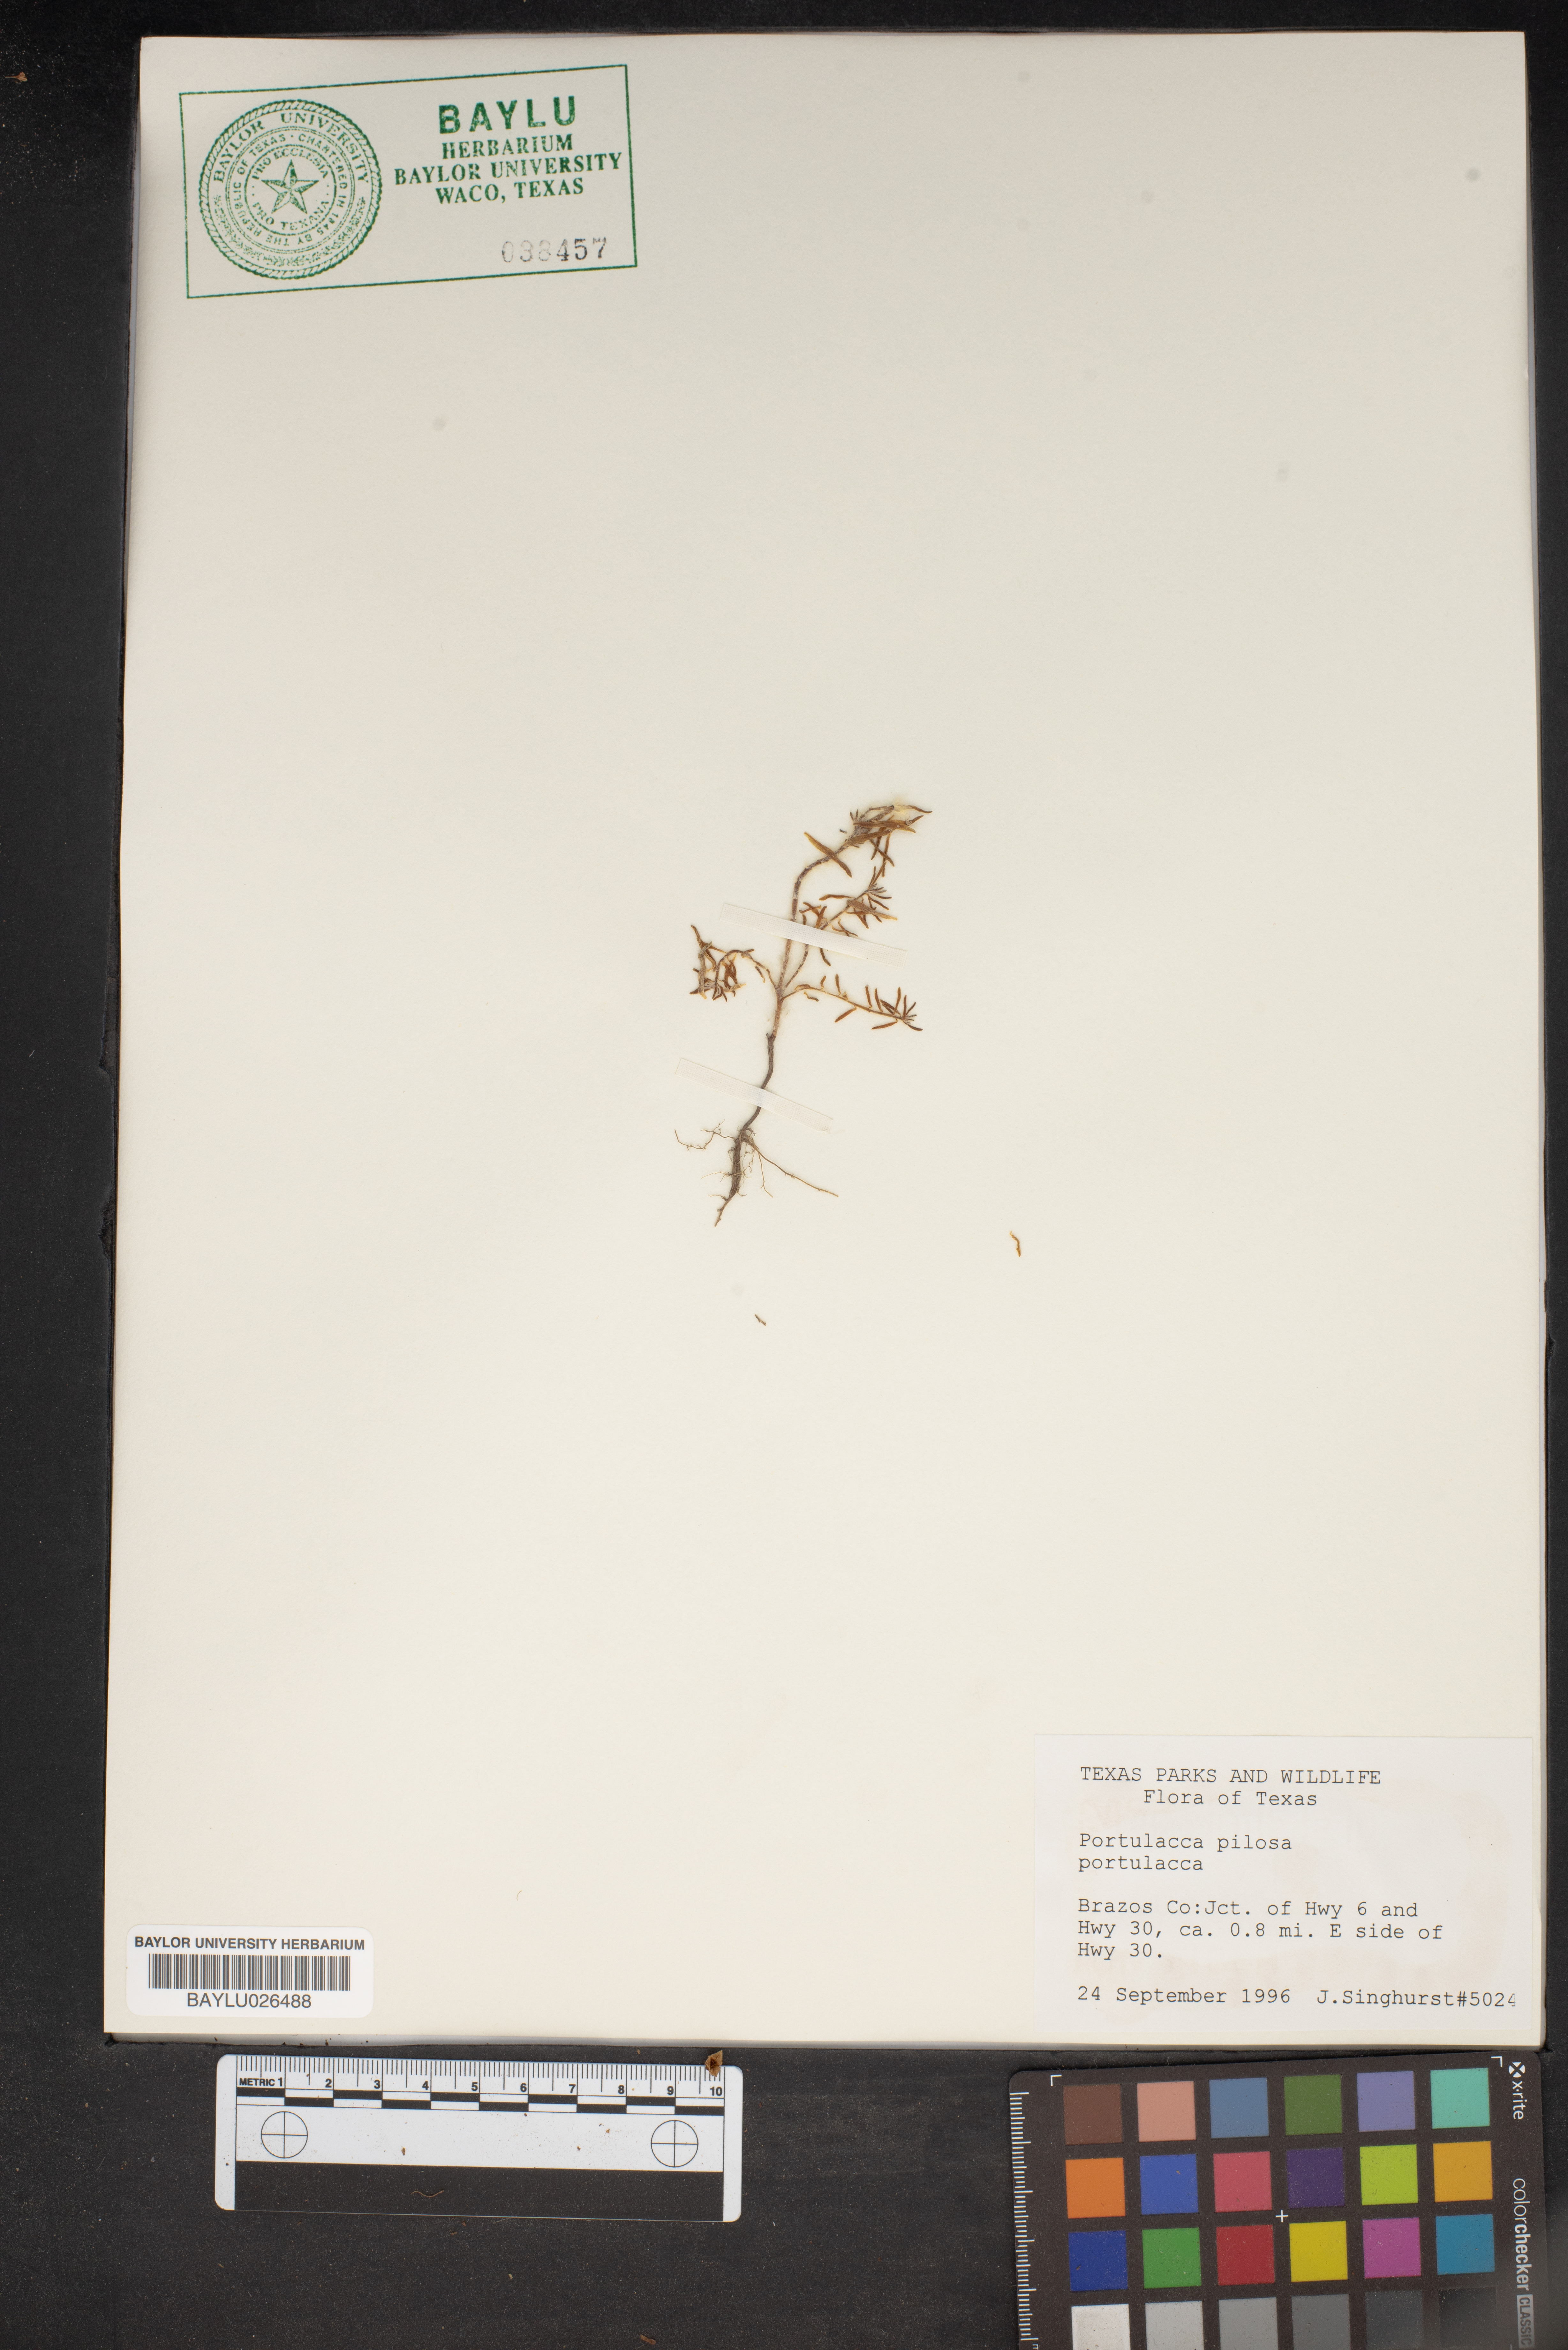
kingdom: Plantae
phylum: Tracheophyta
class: Magnoliopsida
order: Caryophyllales
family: Portulacaceae
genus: Portulaca
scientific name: Portulaca pilosa
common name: Kiss me quick
